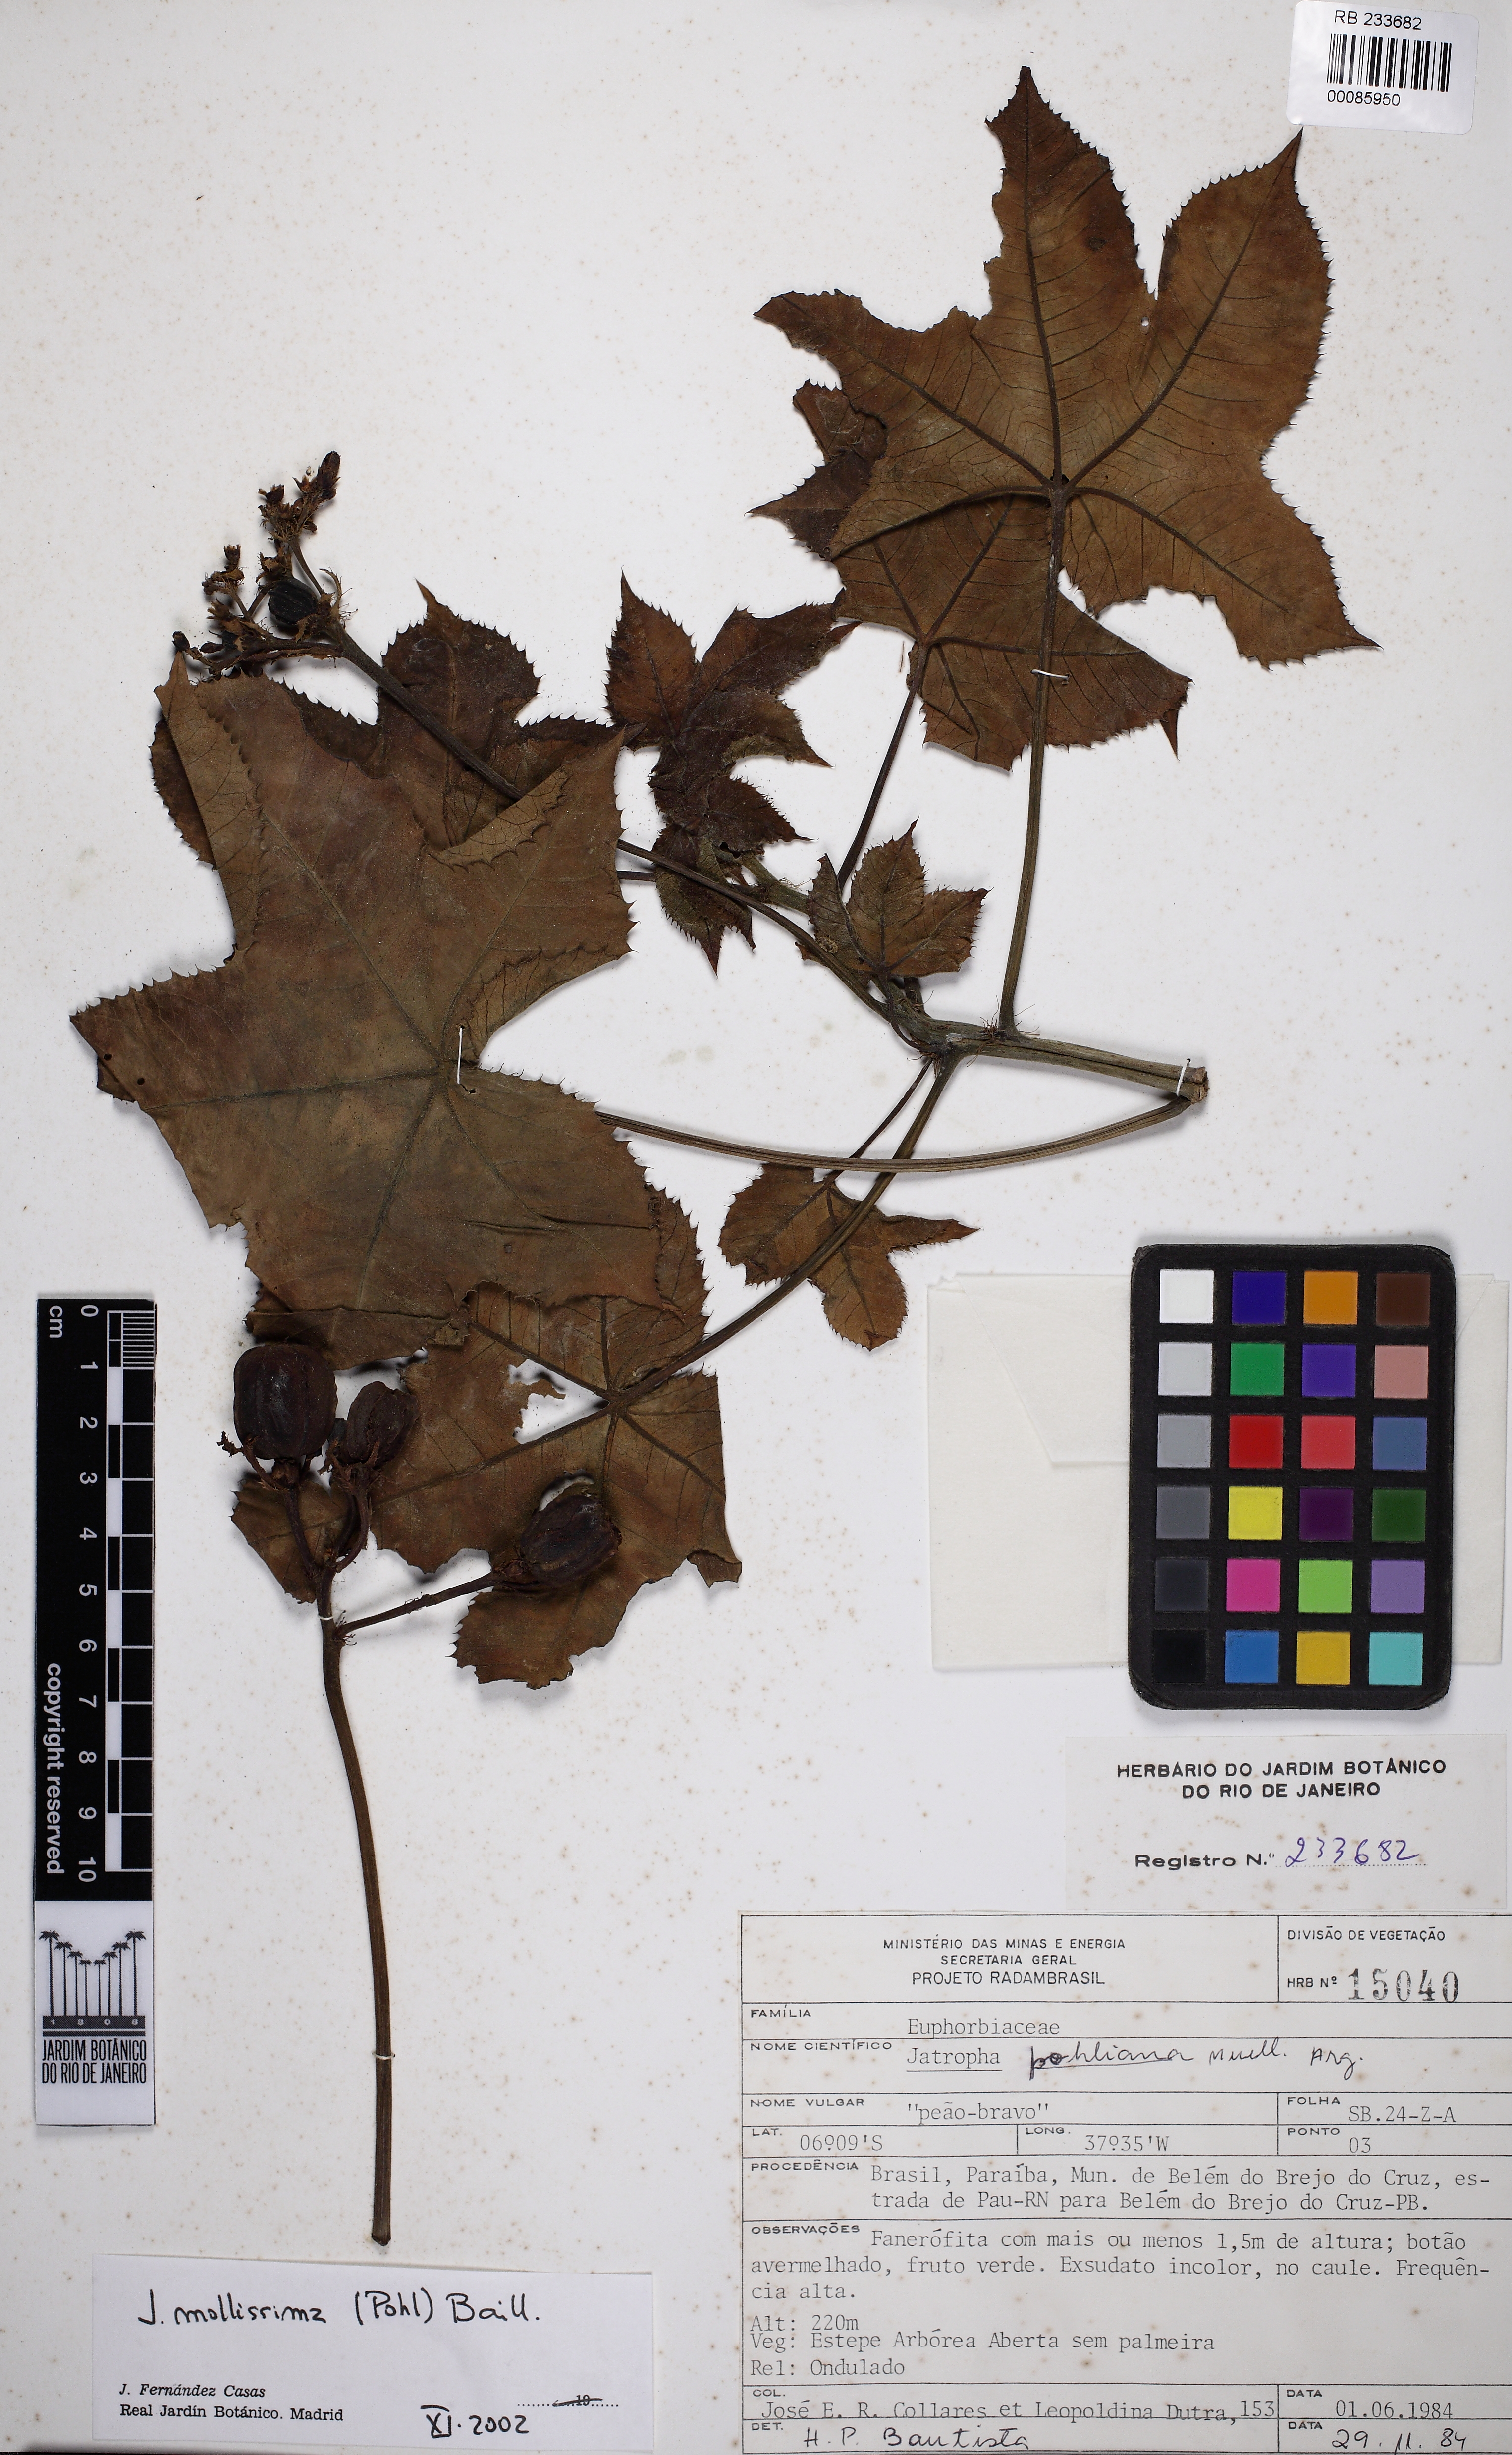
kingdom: Plantae
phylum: Tracheophyta
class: Magnoliopsida
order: Malpighiales
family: Euphorbiaceae
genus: Jatropha
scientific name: Jatropha mollissima
